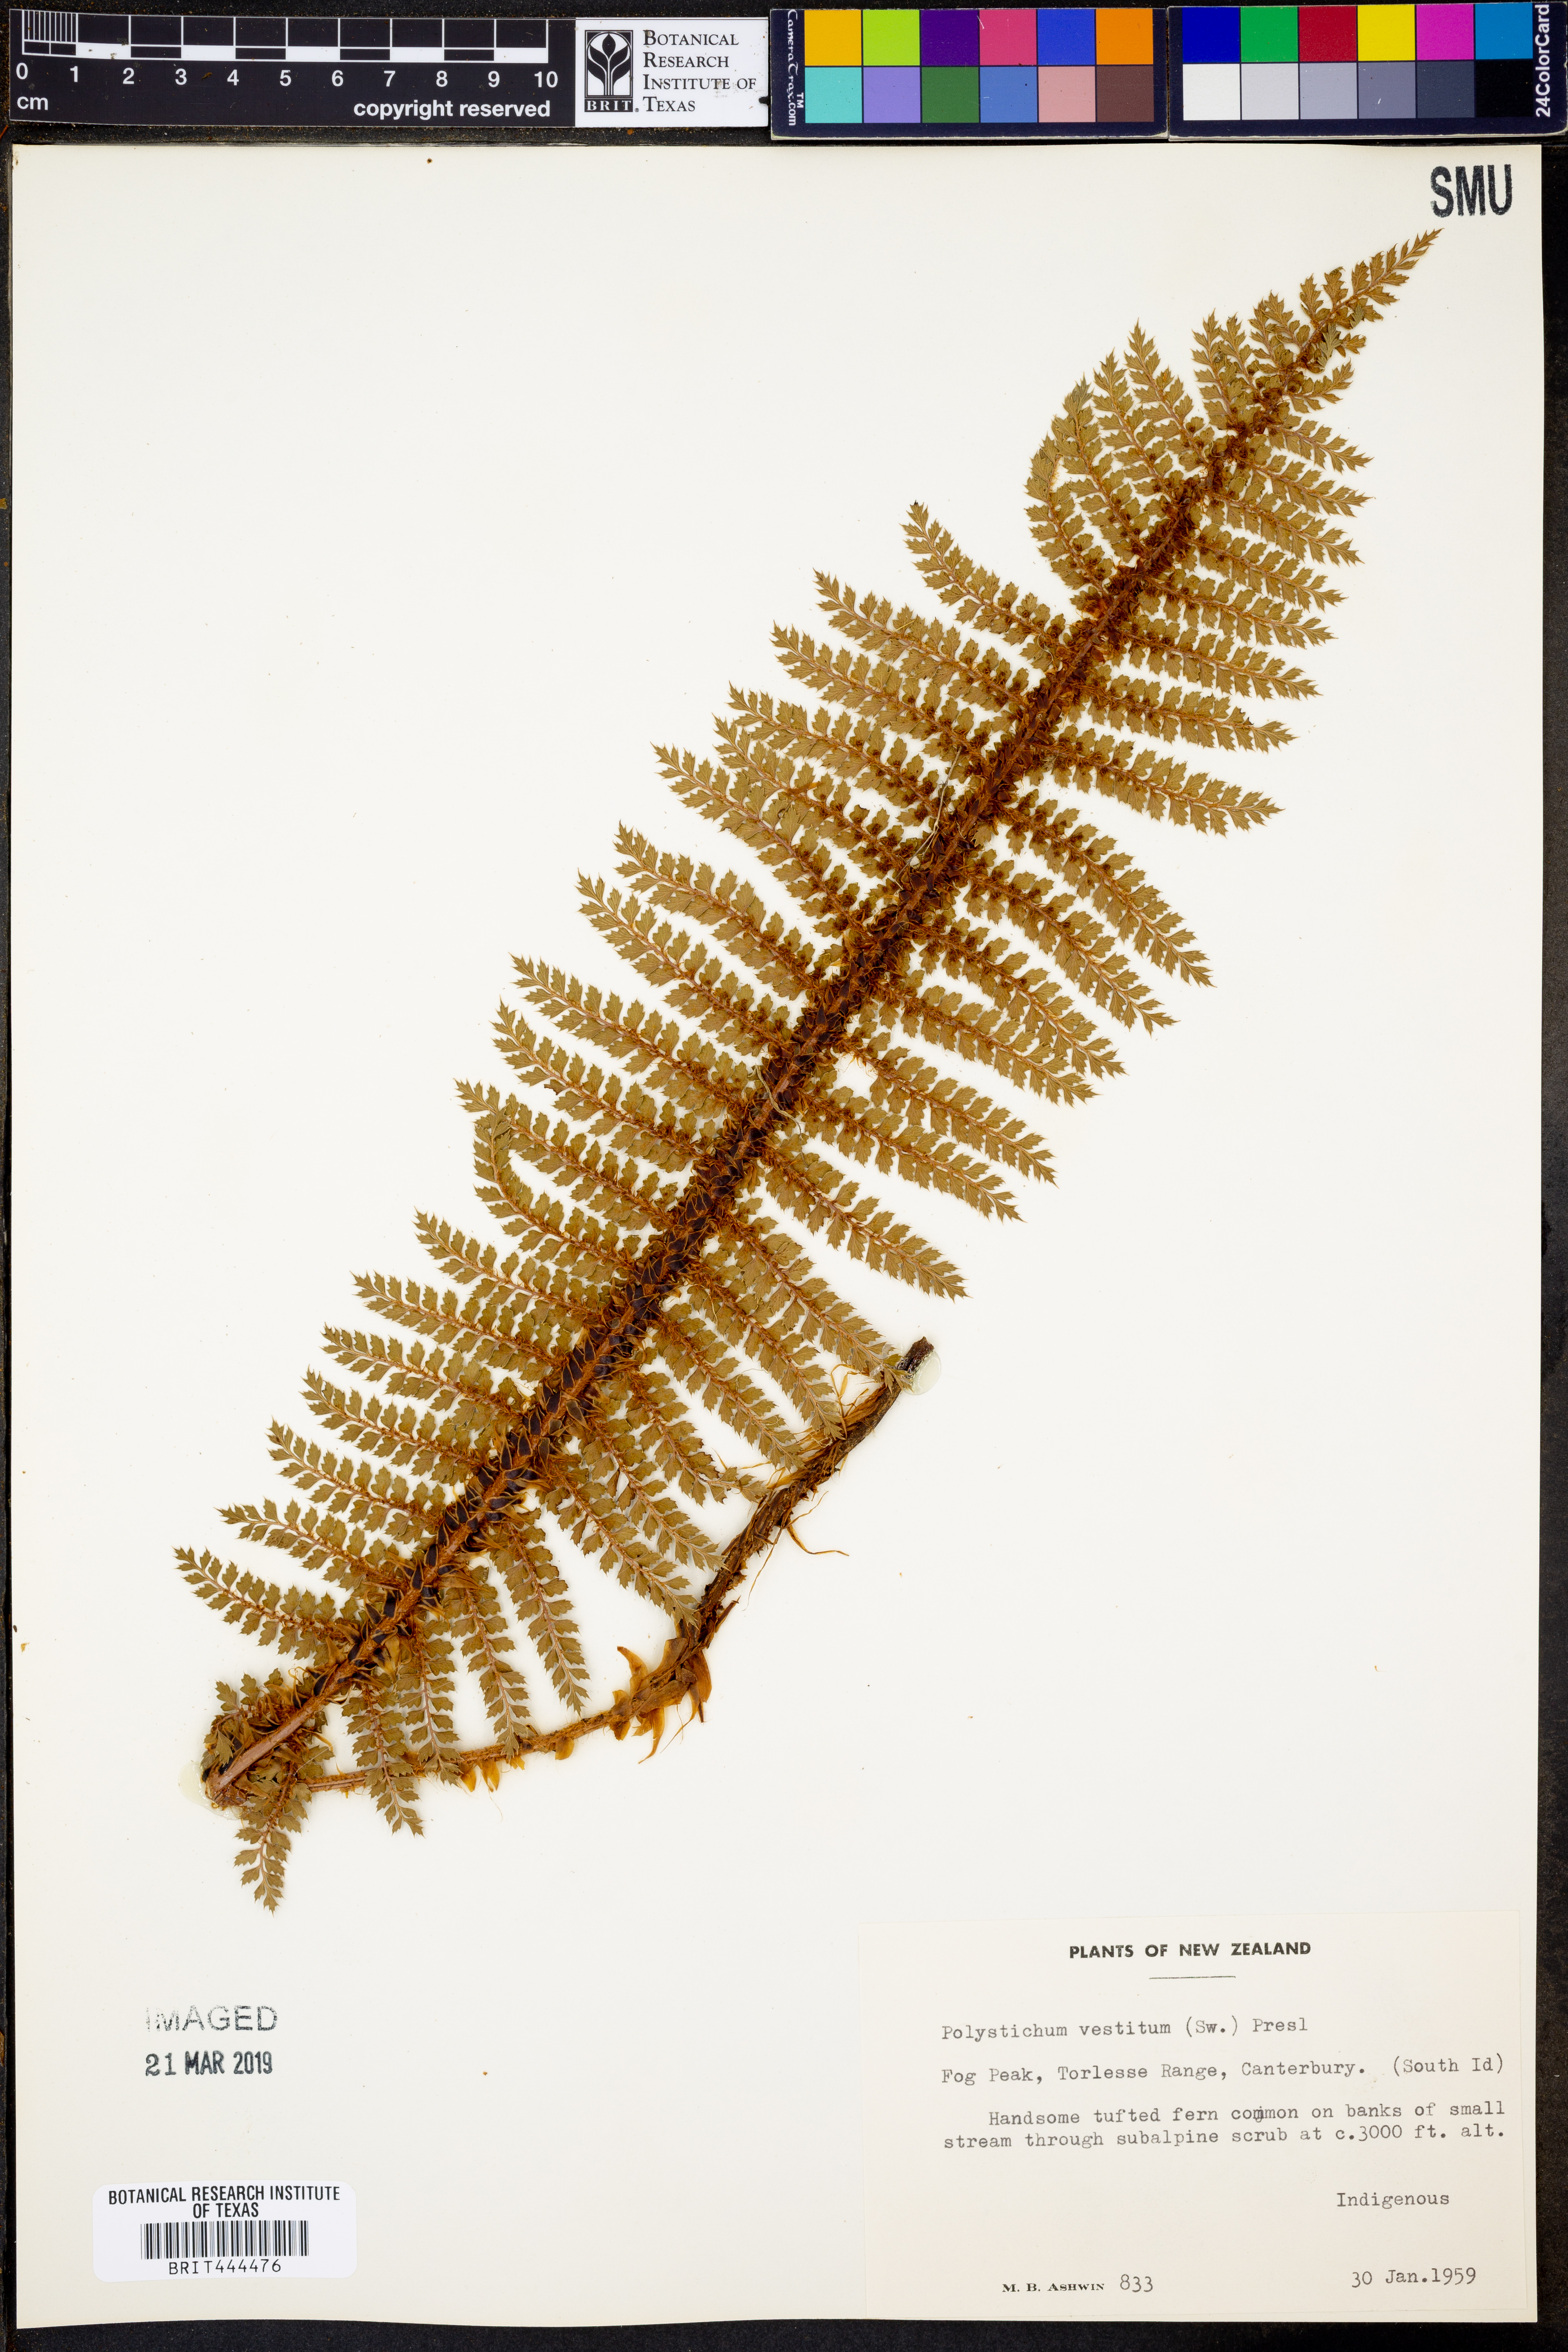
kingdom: Plantae
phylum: Tracheophyta
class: Polypodiopsida
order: Polypodiales
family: Dryopteridaceae
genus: Polystichum
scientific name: Polystichum vestitum
